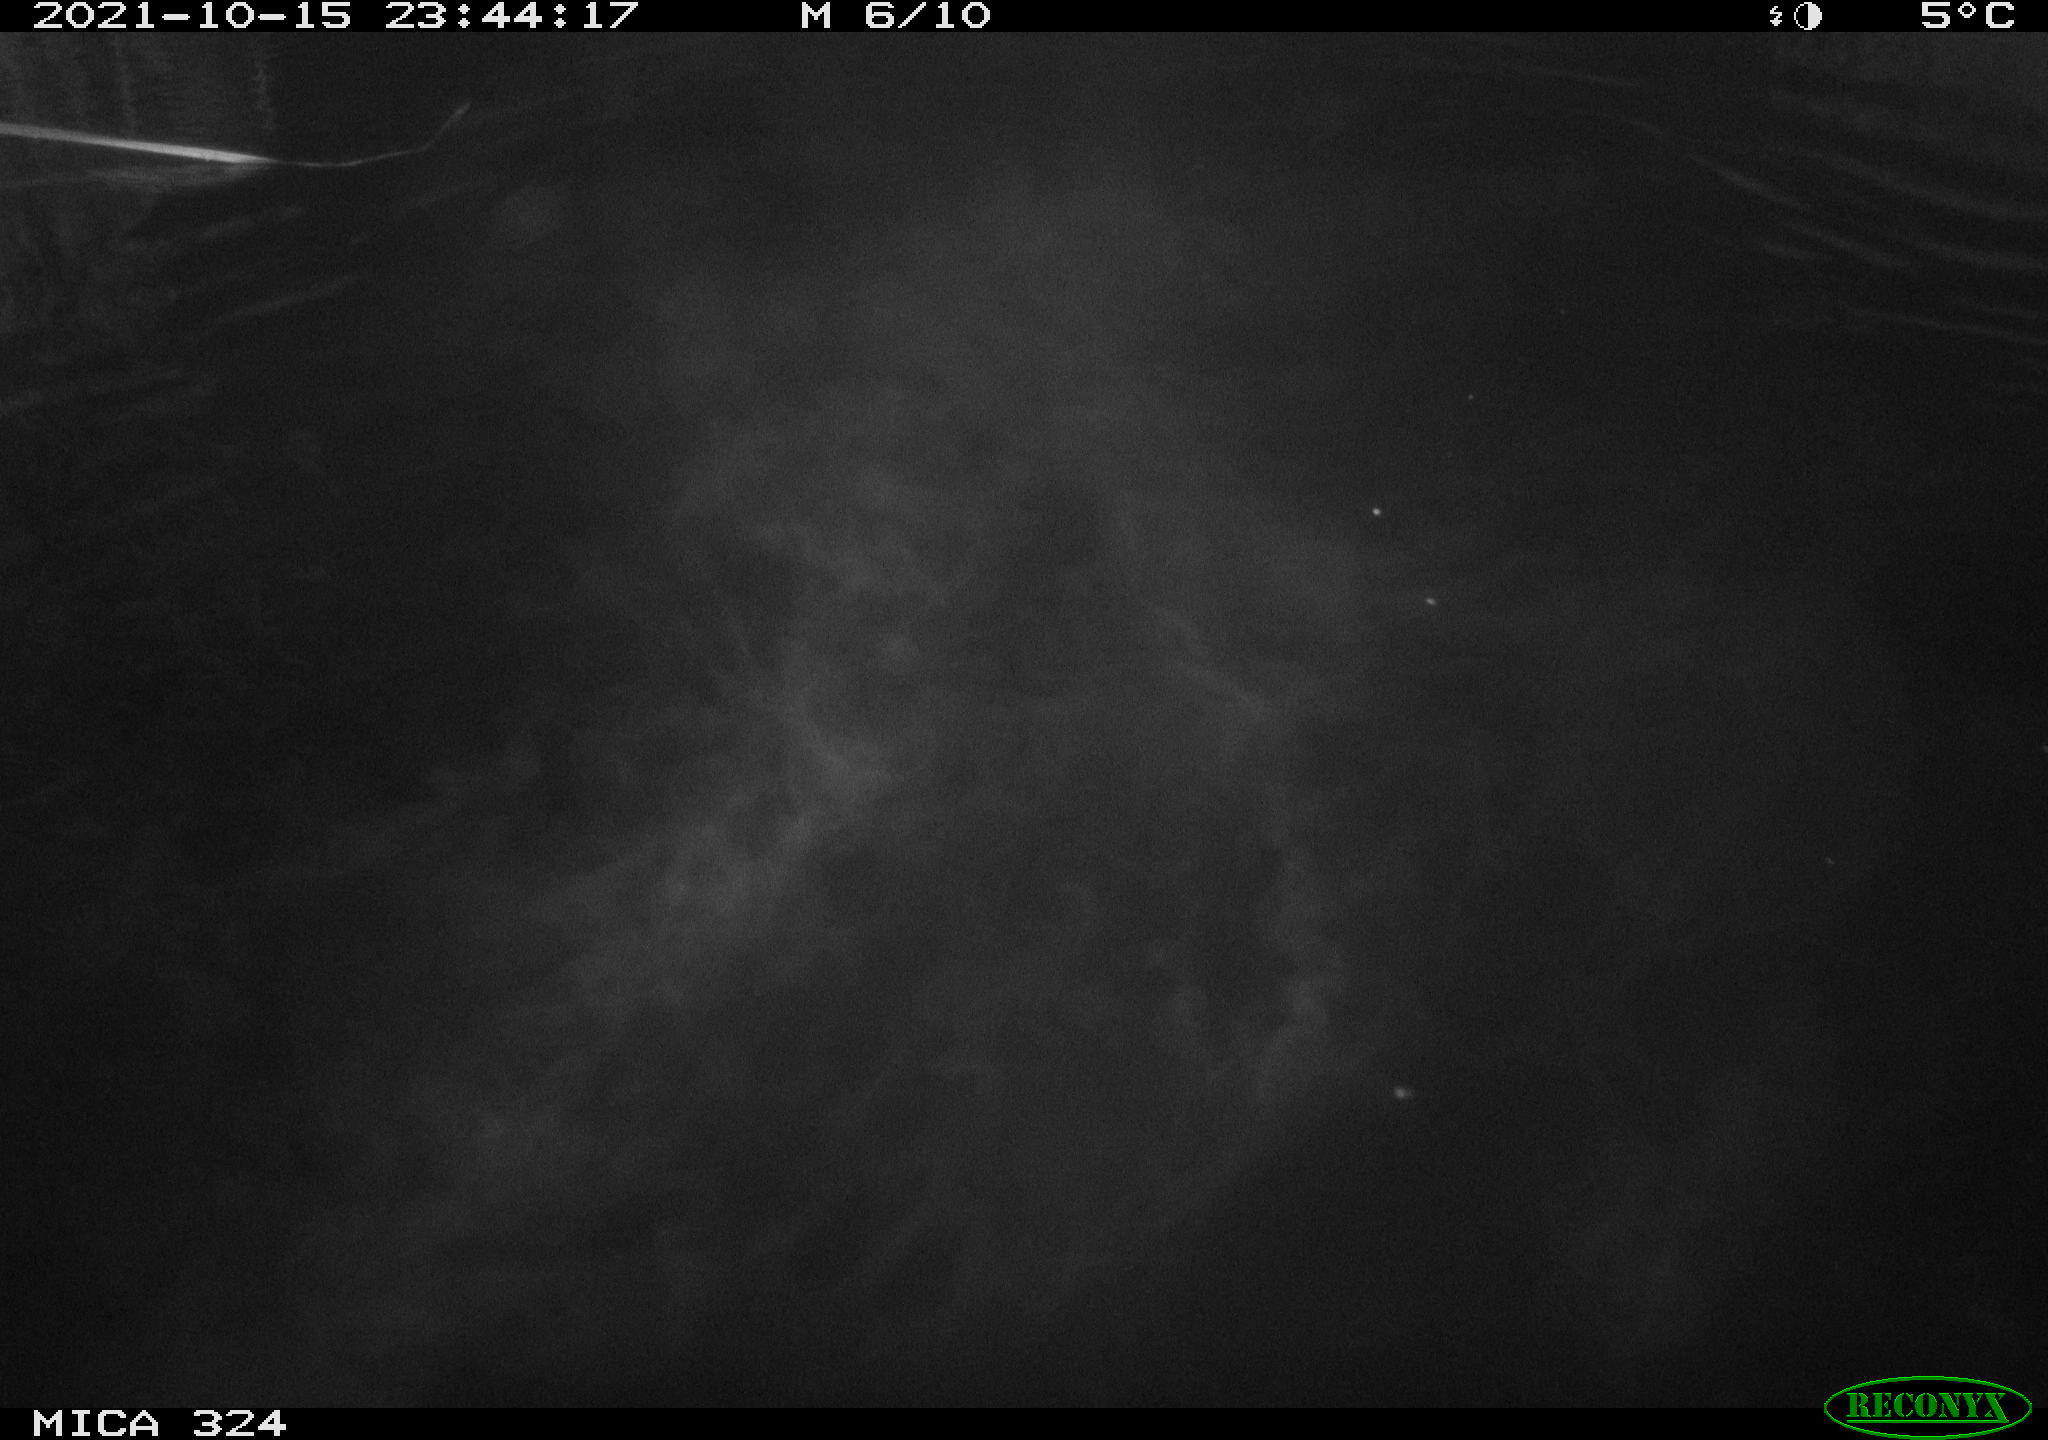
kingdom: Animalia
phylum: Chordata
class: Mammalia
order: Rodentia
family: Cricetidae
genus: Ondatra
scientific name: Ondatra zibethicus
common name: Muskrat
